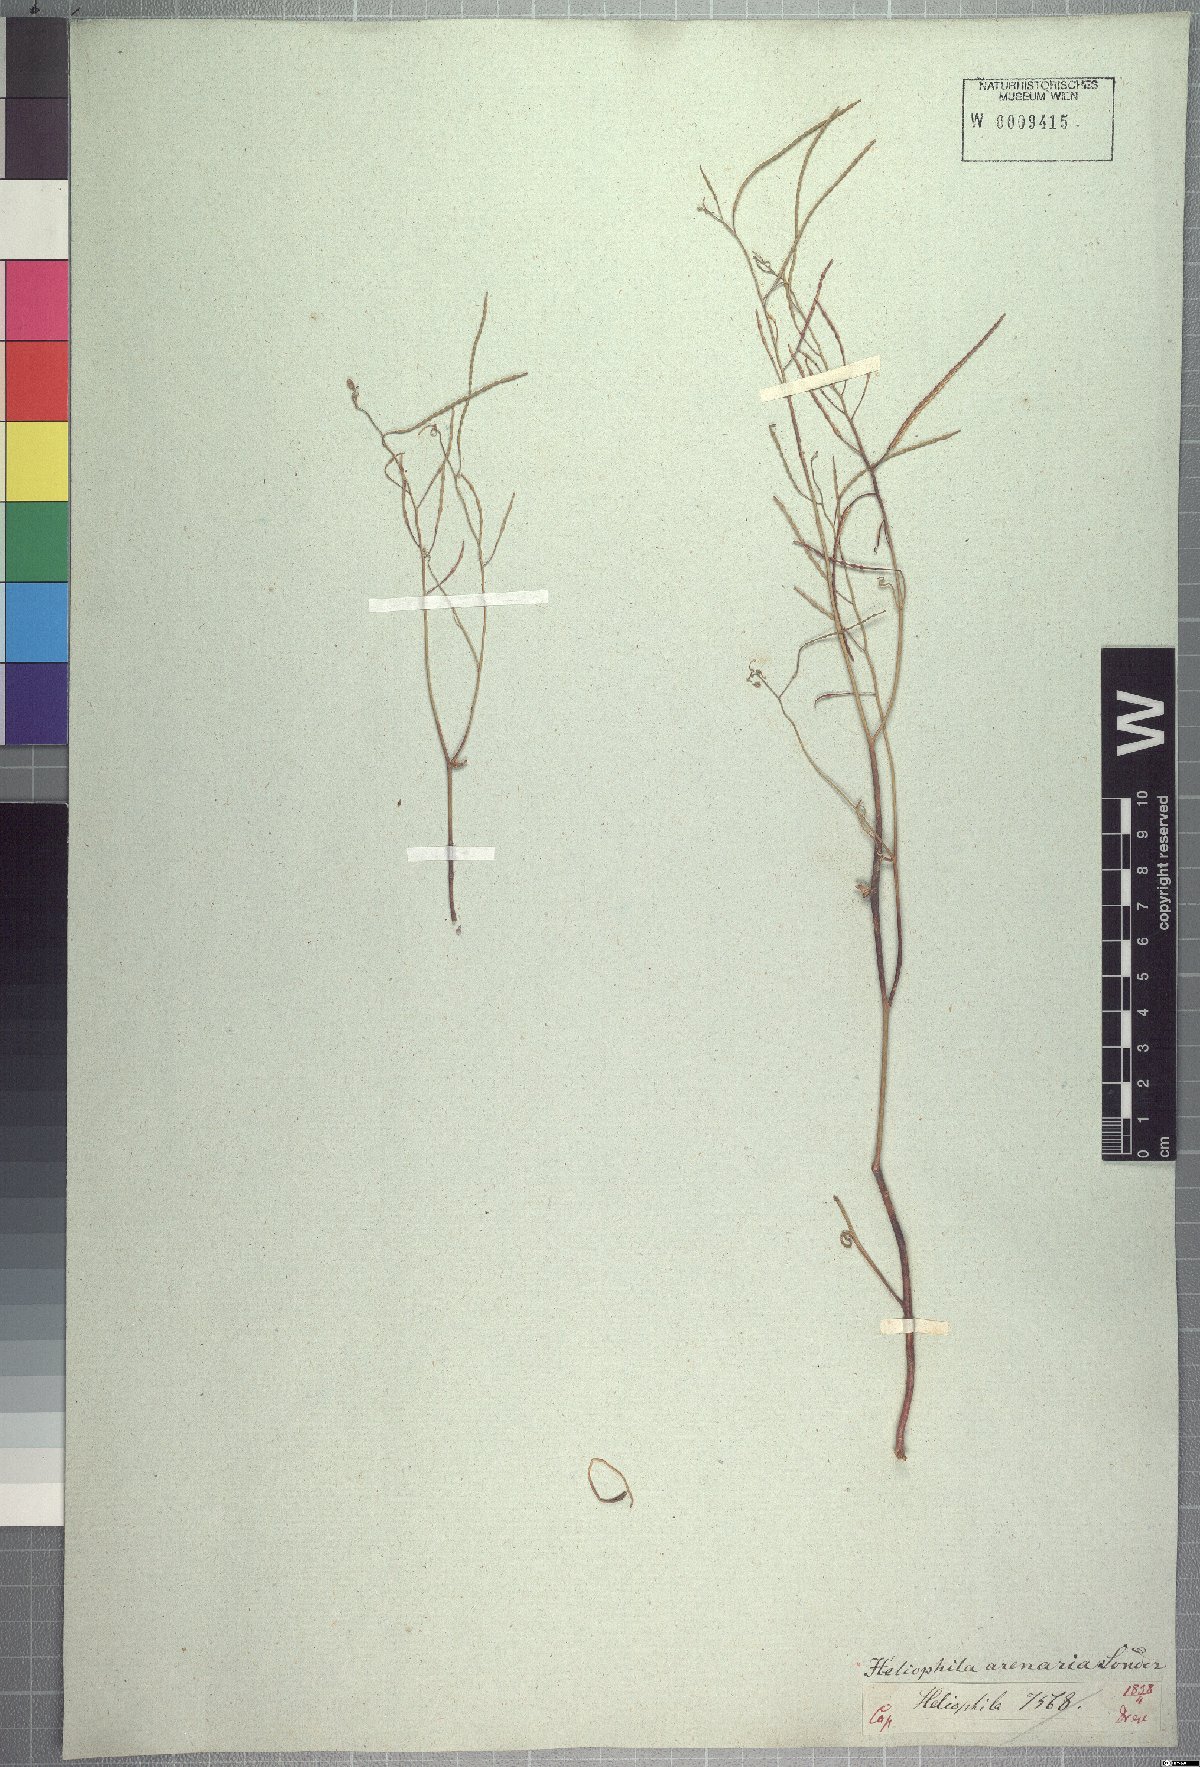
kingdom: Plantae
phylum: Tracheophyta
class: Magnoliopsida
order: Brassicales
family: Brassicaceae
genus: Heliophila
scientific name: Heliophila arenaria
